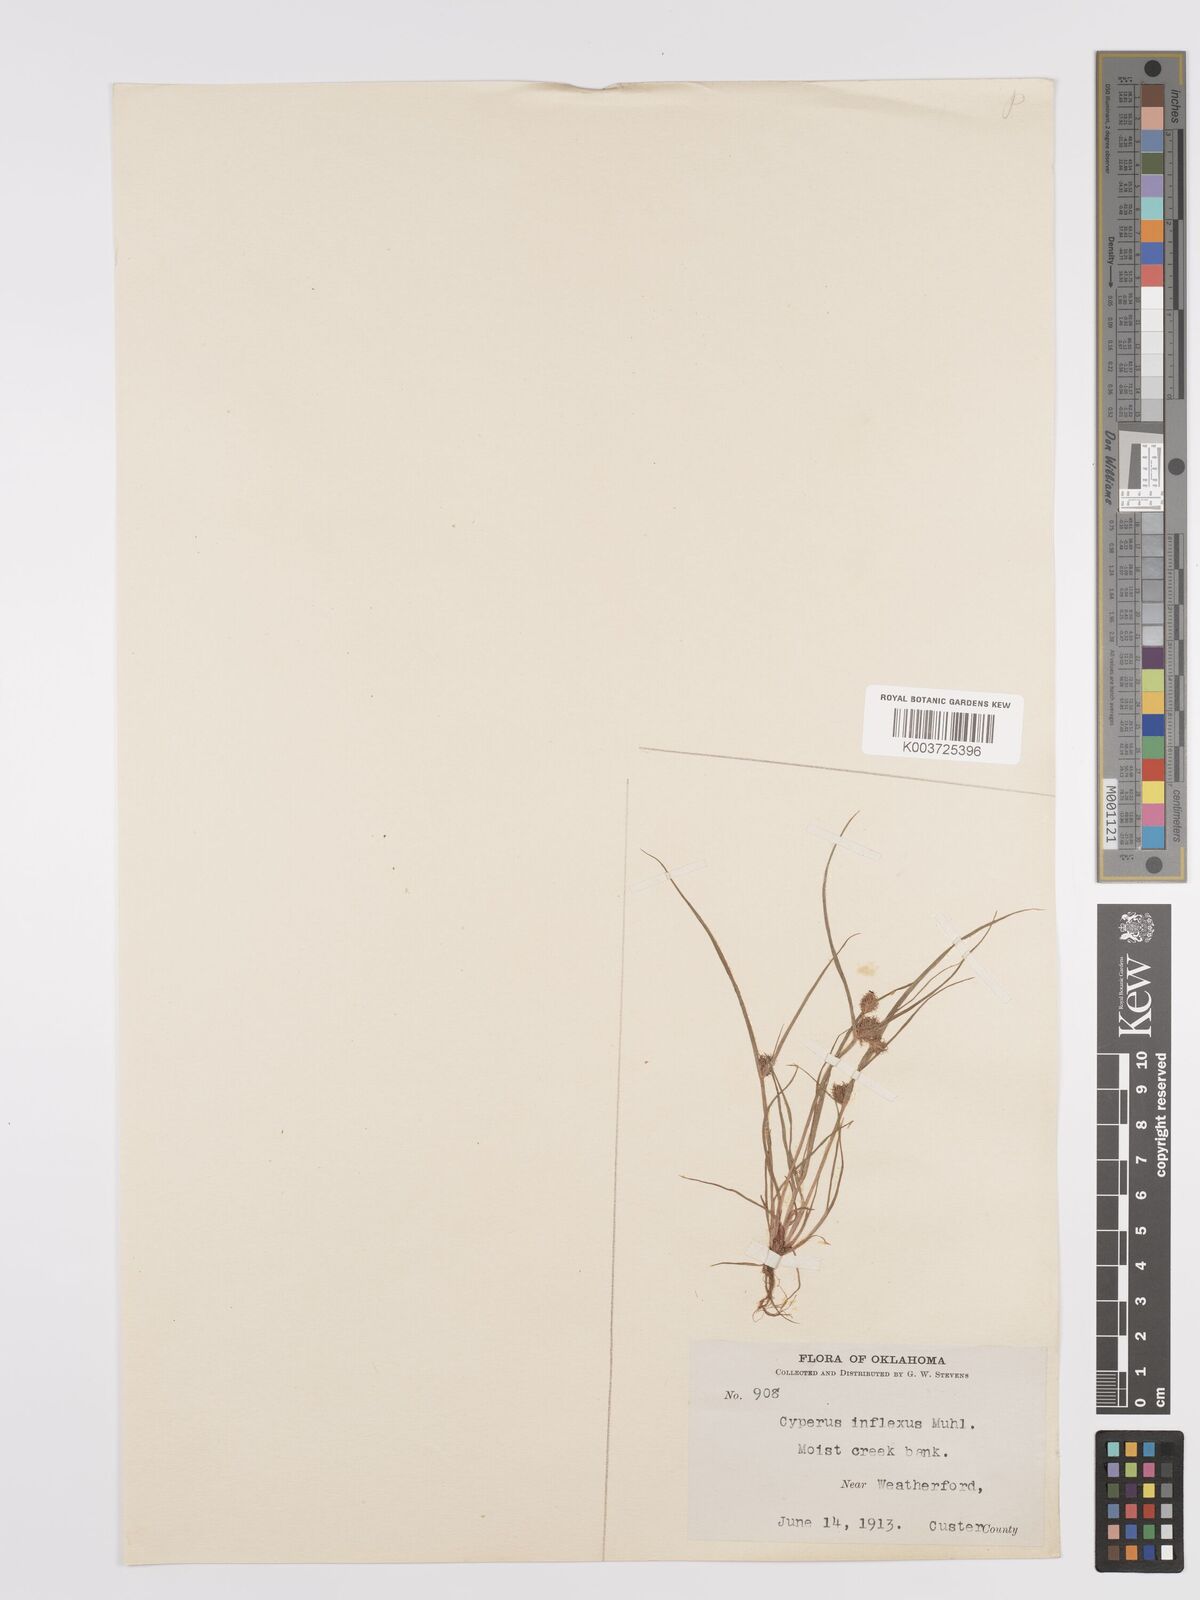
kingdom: Plantae
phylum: Tracheophyta
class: Liliopsida
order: Poales
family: Cyperaceae
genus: Cyperus
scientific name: Cyperus squarrosus
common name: Awned cyperus
